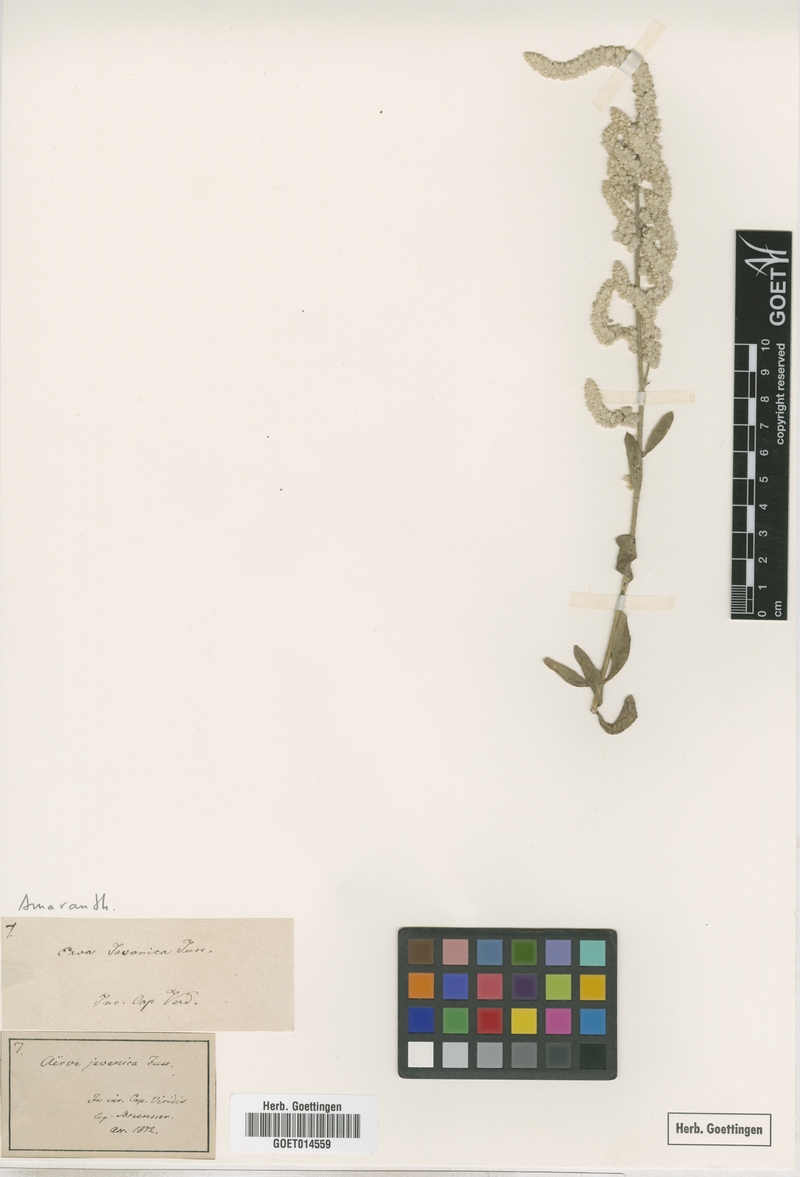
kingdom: Plantae
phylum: Tracheophyta
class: Magnoliopsida
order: Caryophyllales
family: Amaranthaceae
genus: Aerva
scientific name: Aerva javanica
